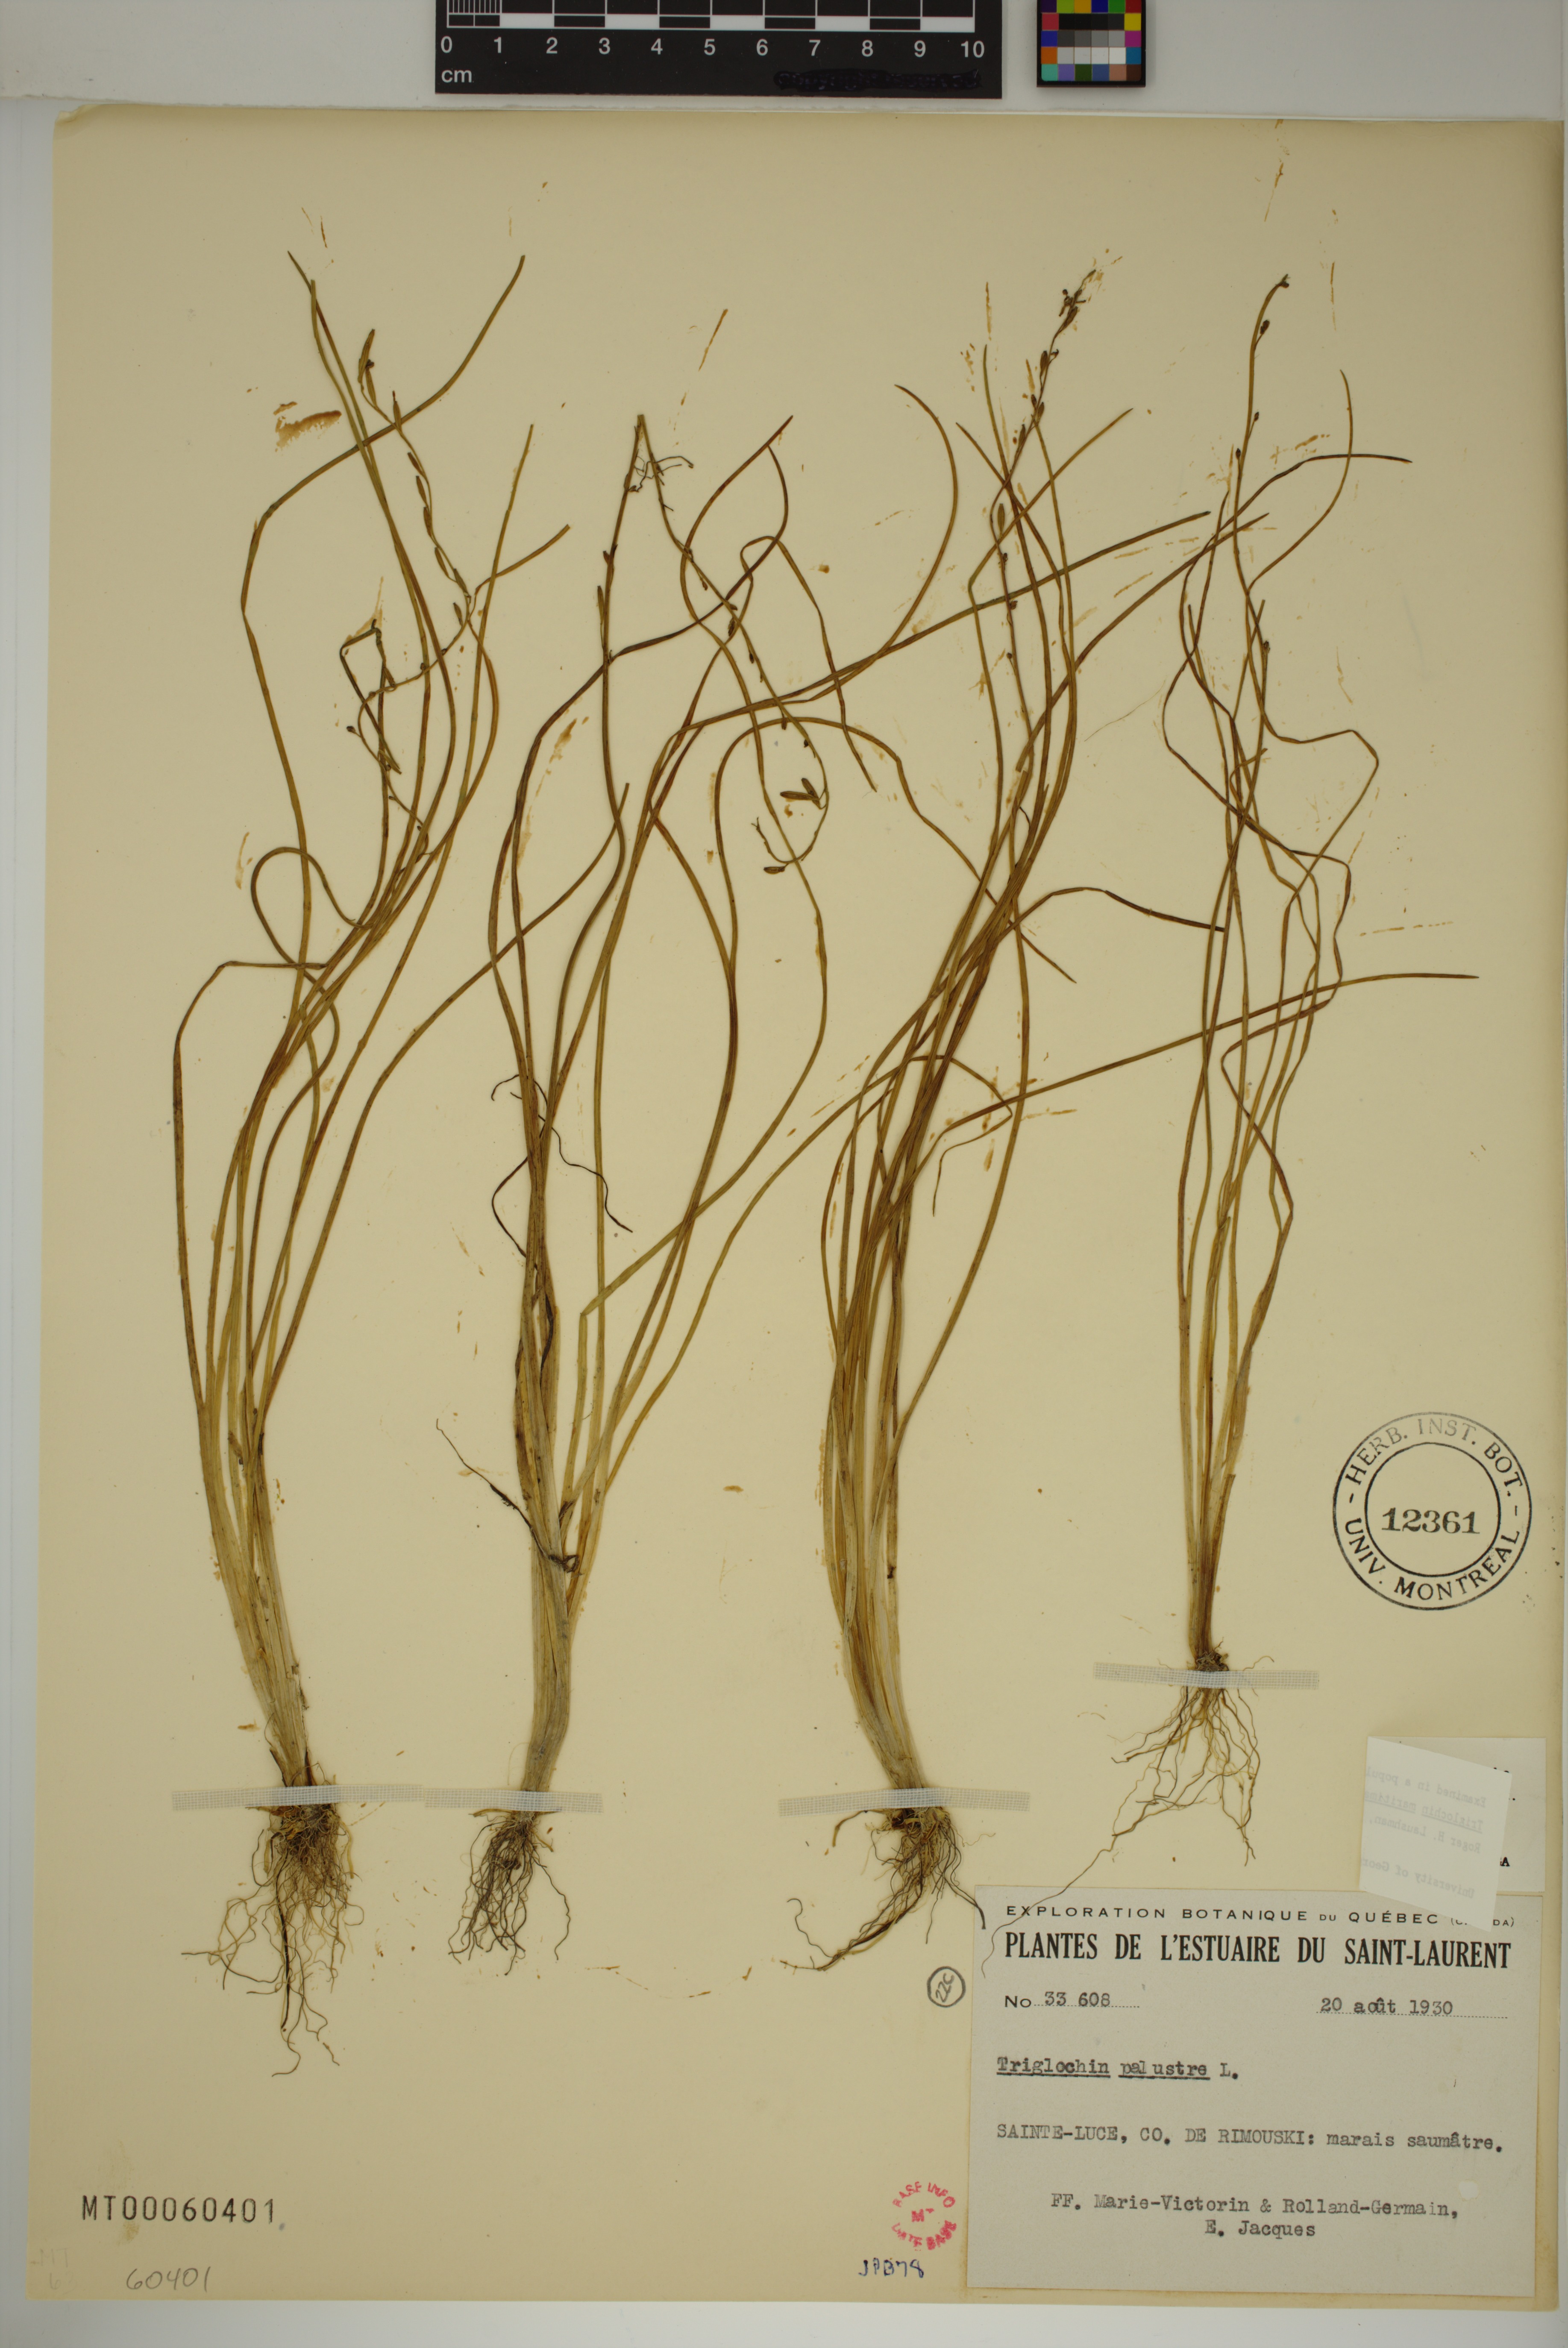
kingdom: Plantae
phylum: Tracheophyta
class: Liliopsida
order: Alismatales
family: Juncaginaceae
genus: Triglochin
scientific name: Triglochin palustris
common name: Marsh arrowgrass
